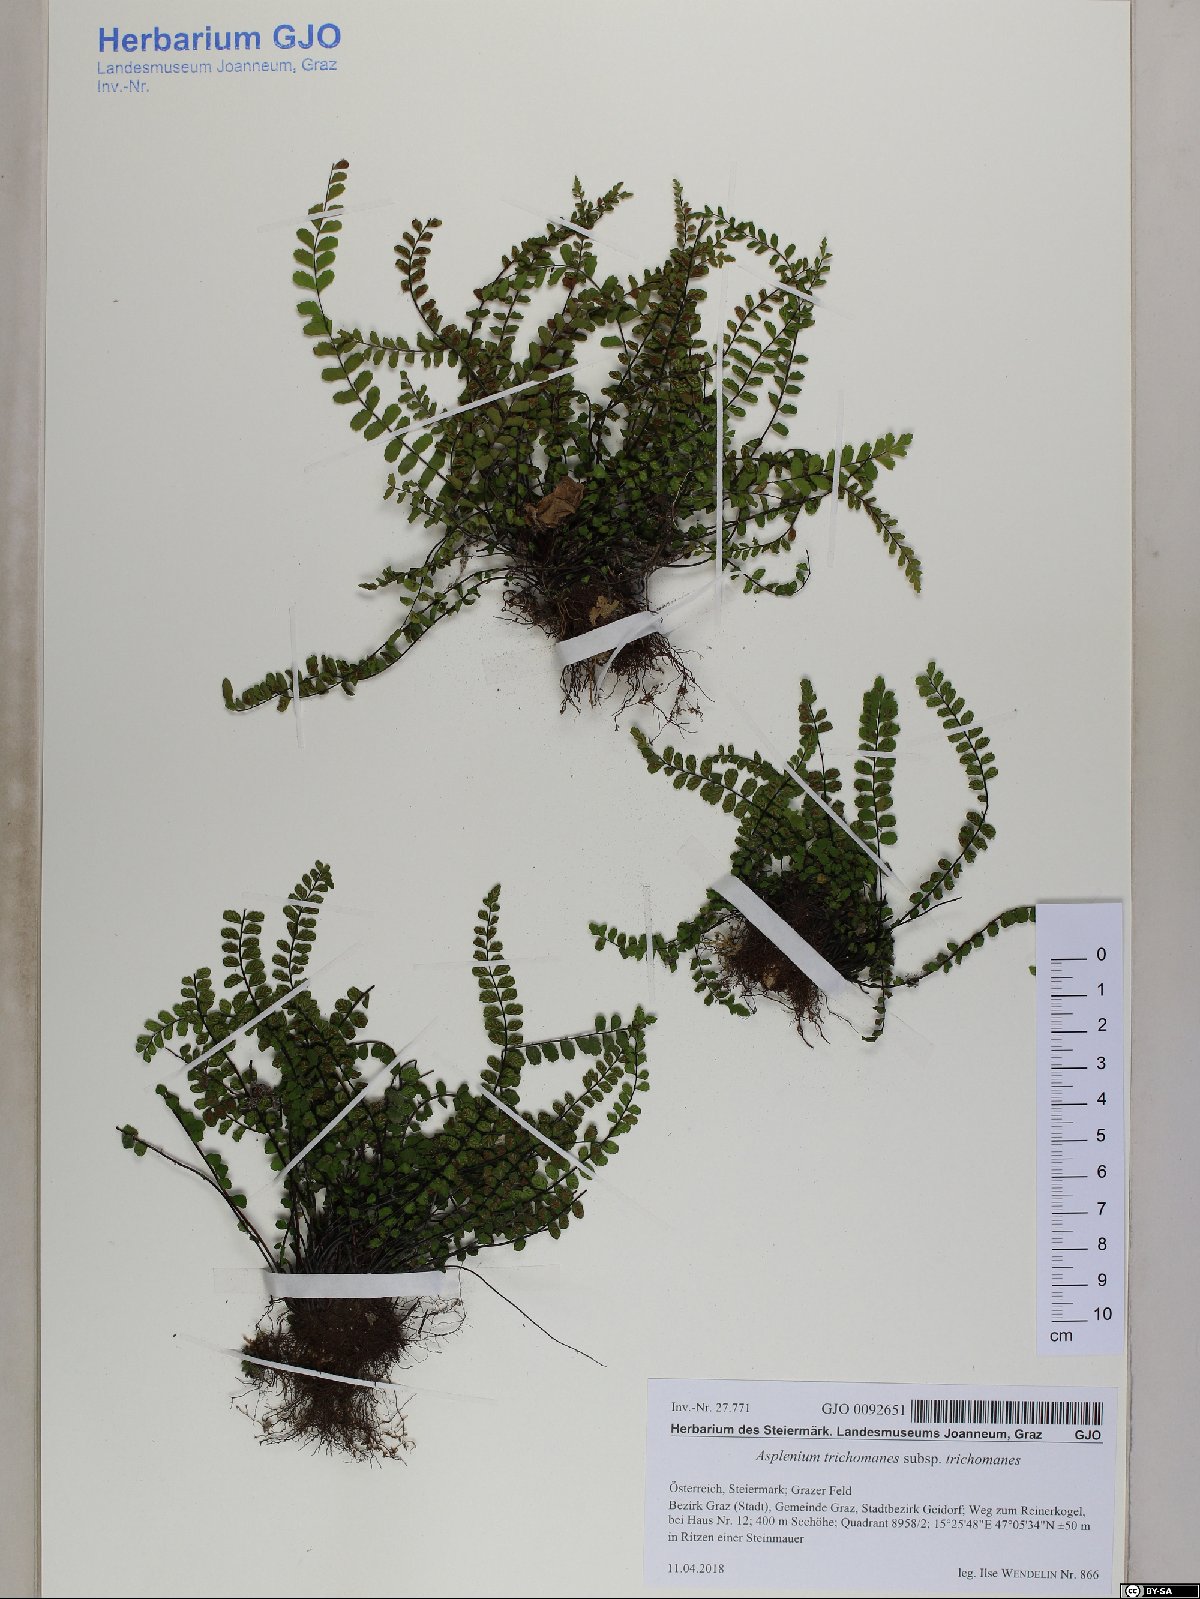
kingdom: Plantae
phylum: Tracheophyta
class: Polypodiopsida
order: Polypodiales
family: Aspleniaceae
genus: Asplenium
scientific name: Asplenium trichomanes
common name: Maidenhair spleenwort
